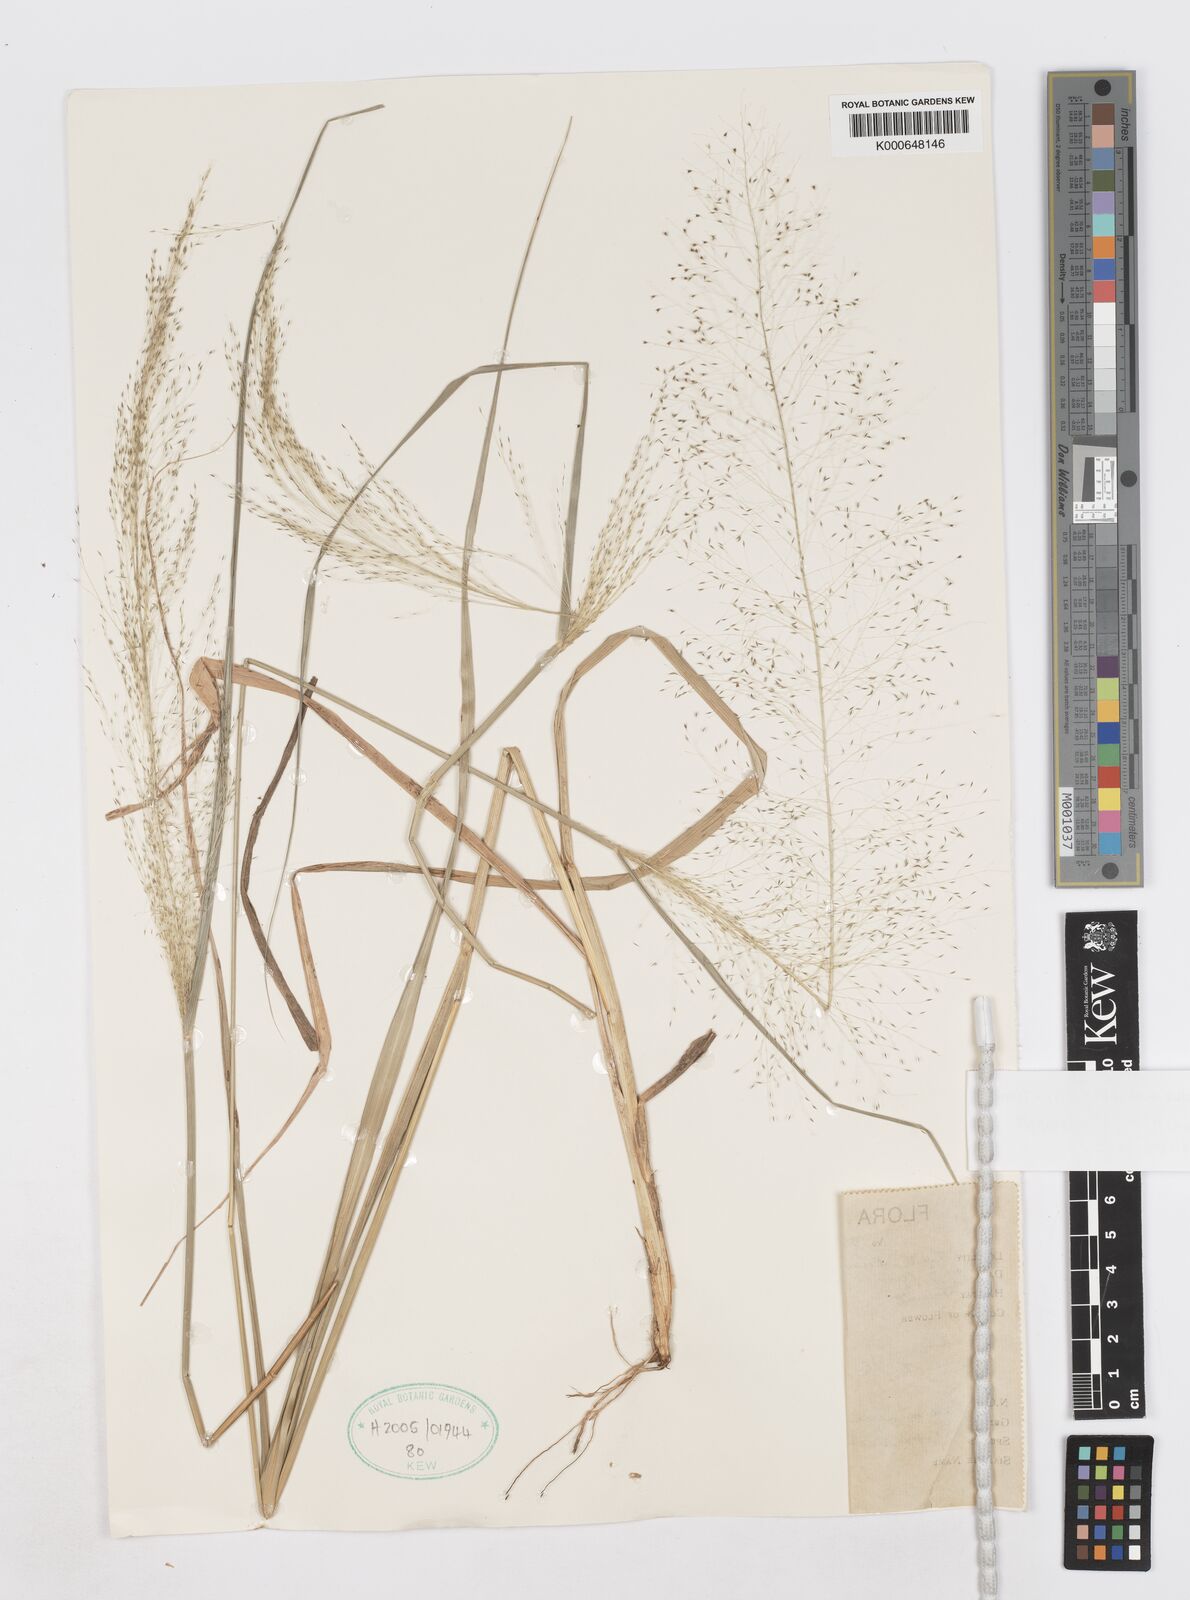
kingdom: Plantae
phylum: Tracheophyta
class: Liliopsida
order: Poales
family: Poaceae
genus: Sporobolus
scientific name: Sporobolus
